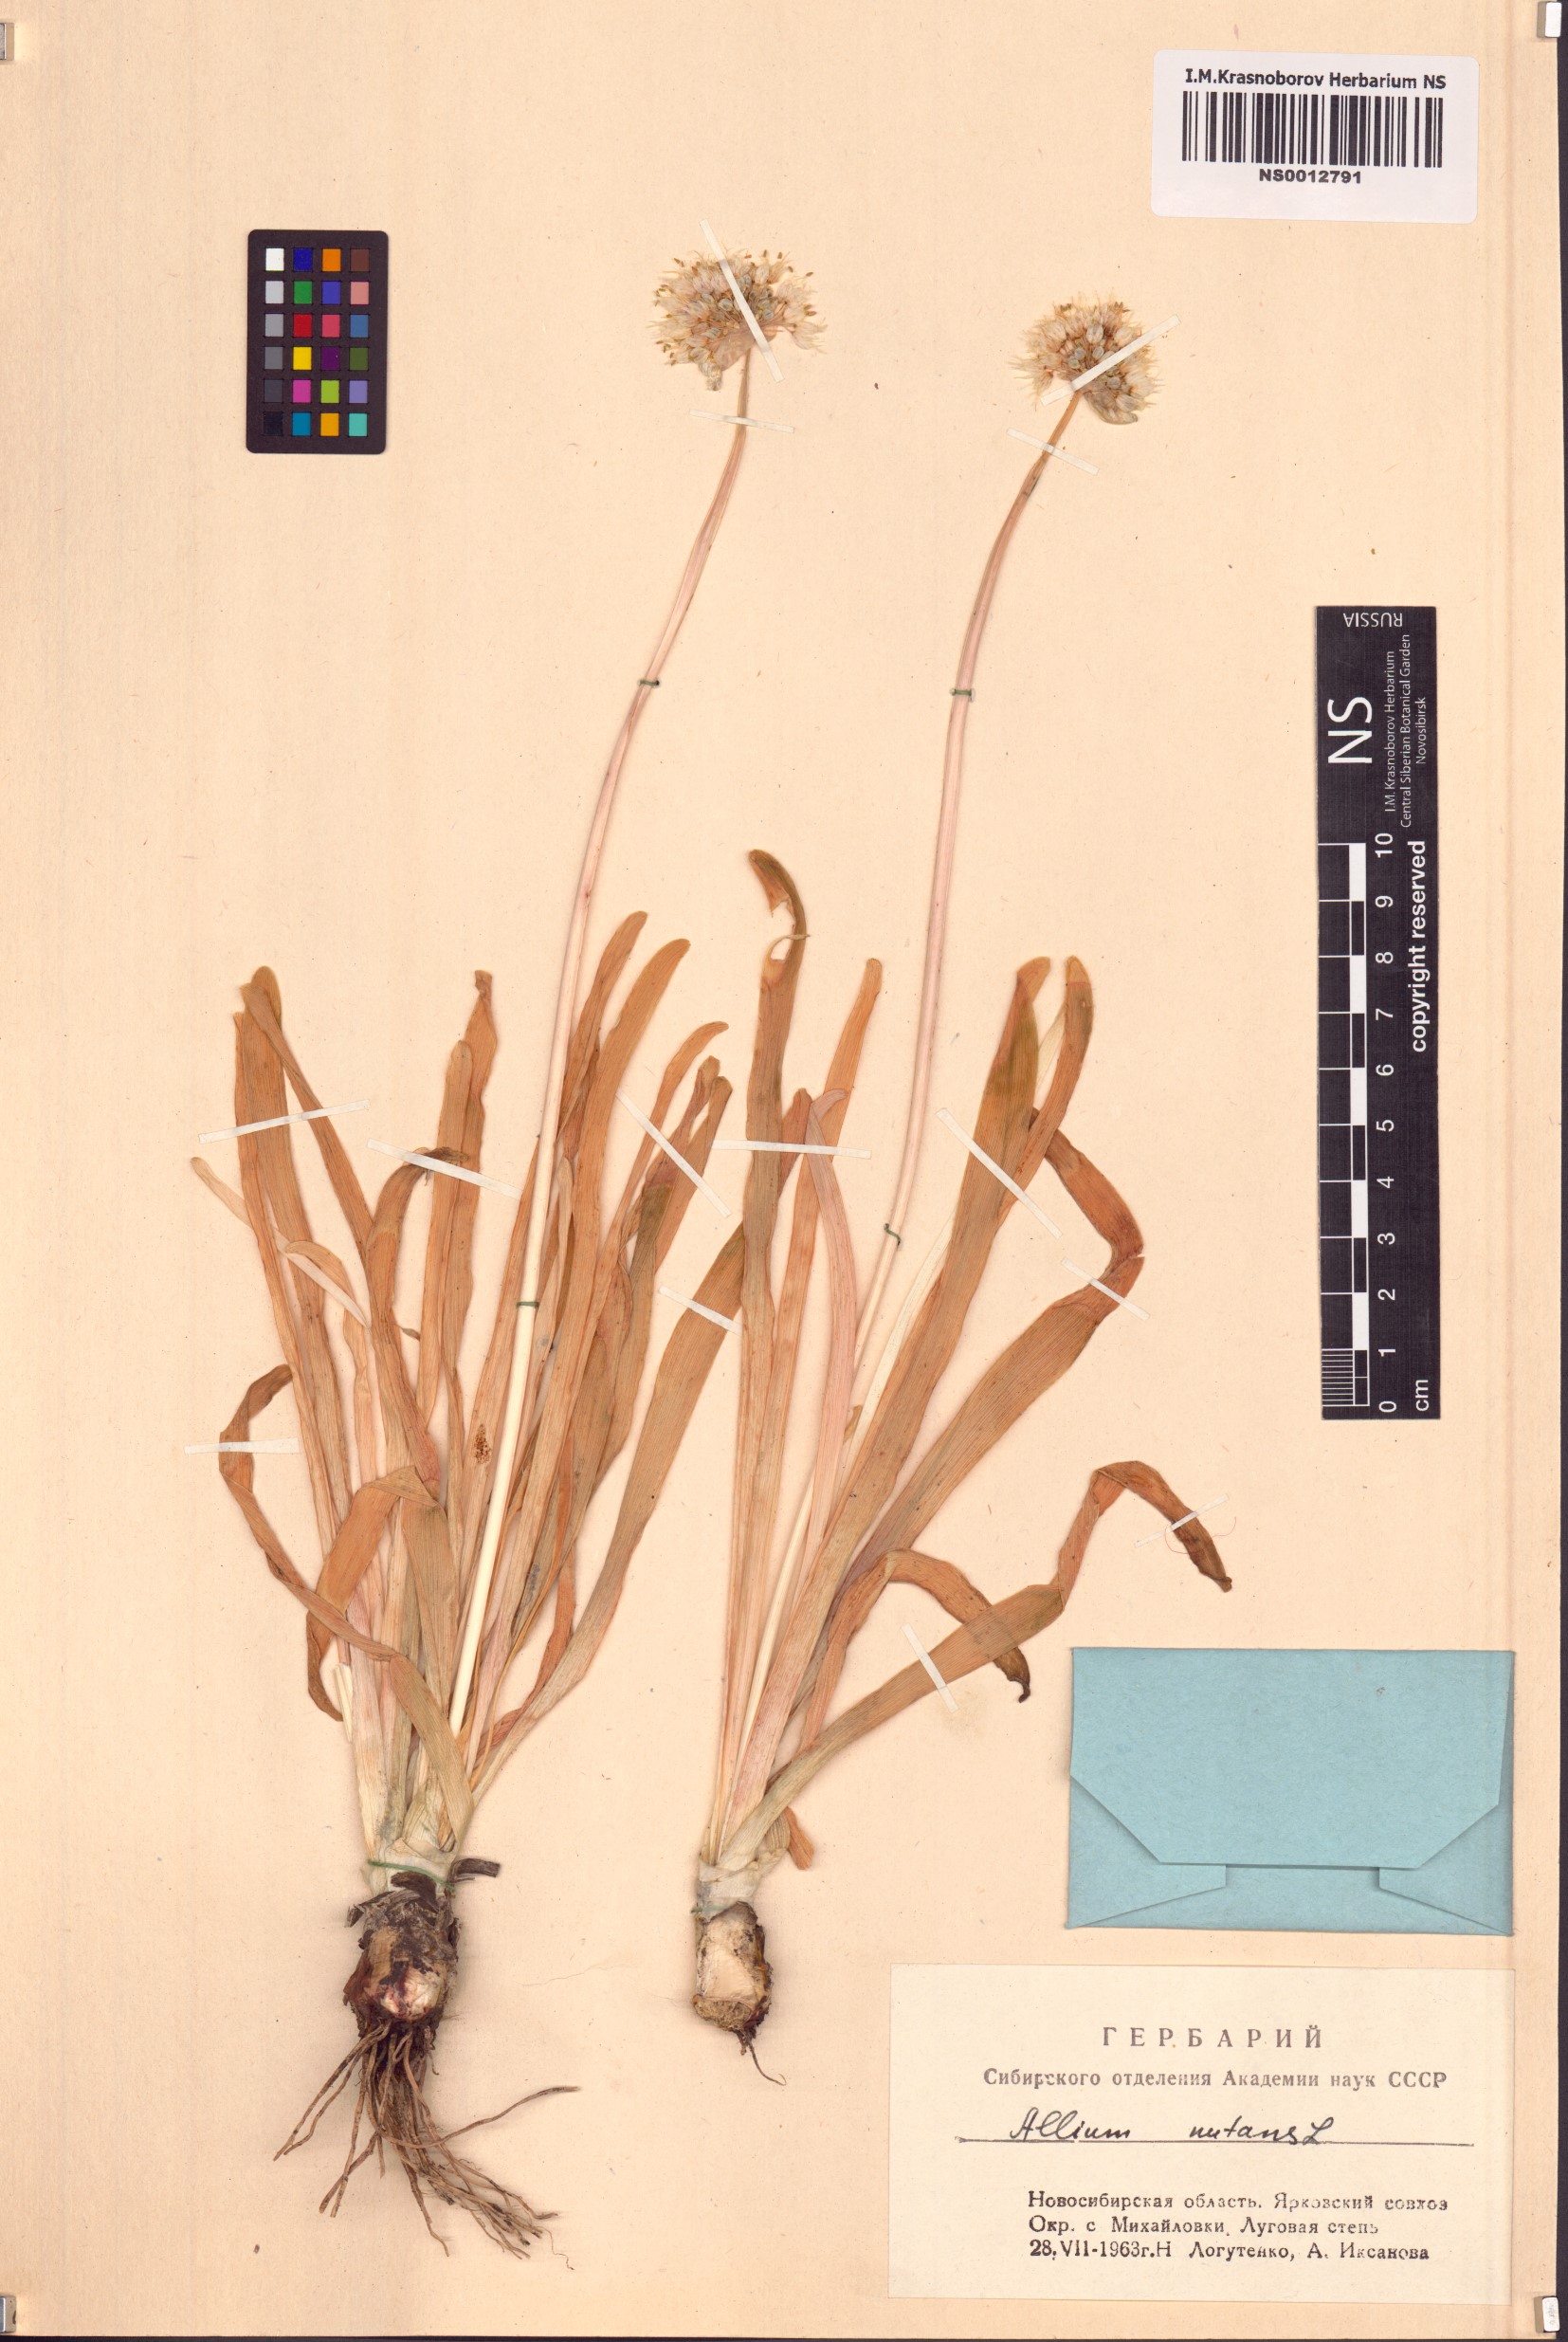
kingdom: Plantae
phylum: Tracheophyta
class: Liliopsida
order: Asparagales
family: Amaryllidaceae
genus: Allium
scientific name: Allium nutans
